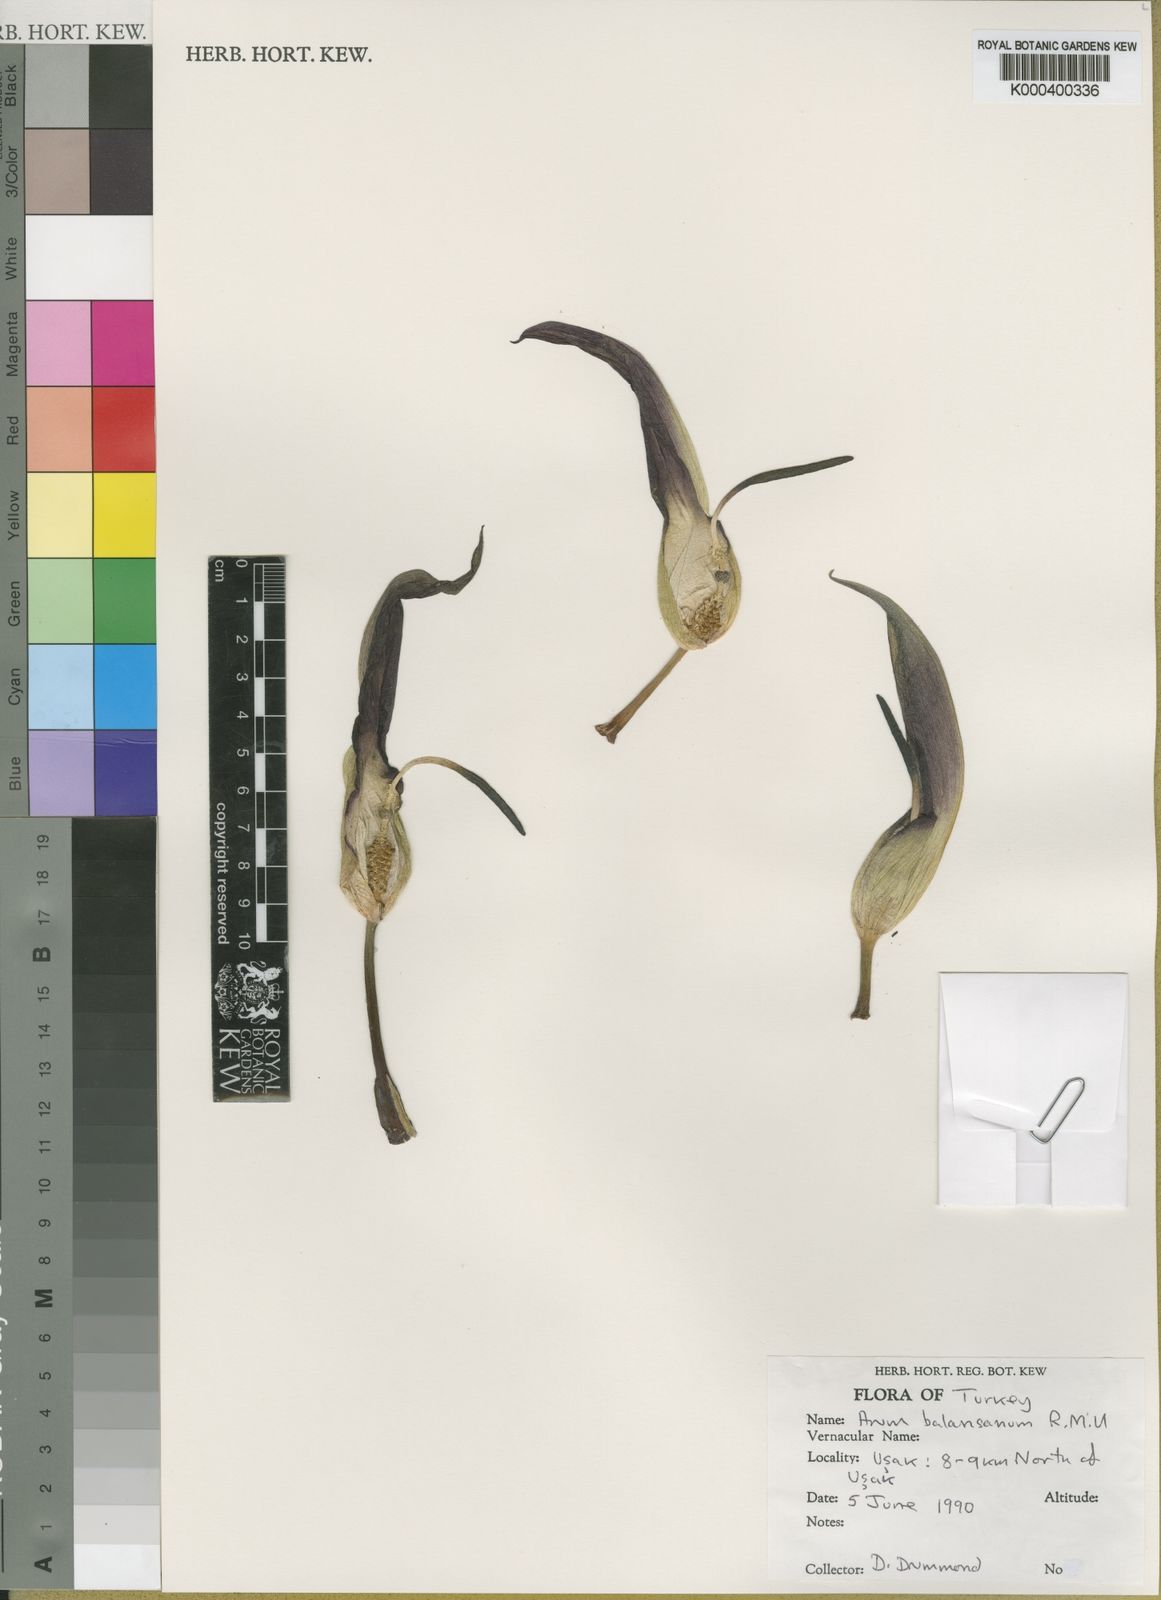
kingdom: Plantae
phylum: Tracheophyta
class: Liliopsida
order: Alismatales
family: Araceae
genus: Arum
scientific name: Arum orientale
